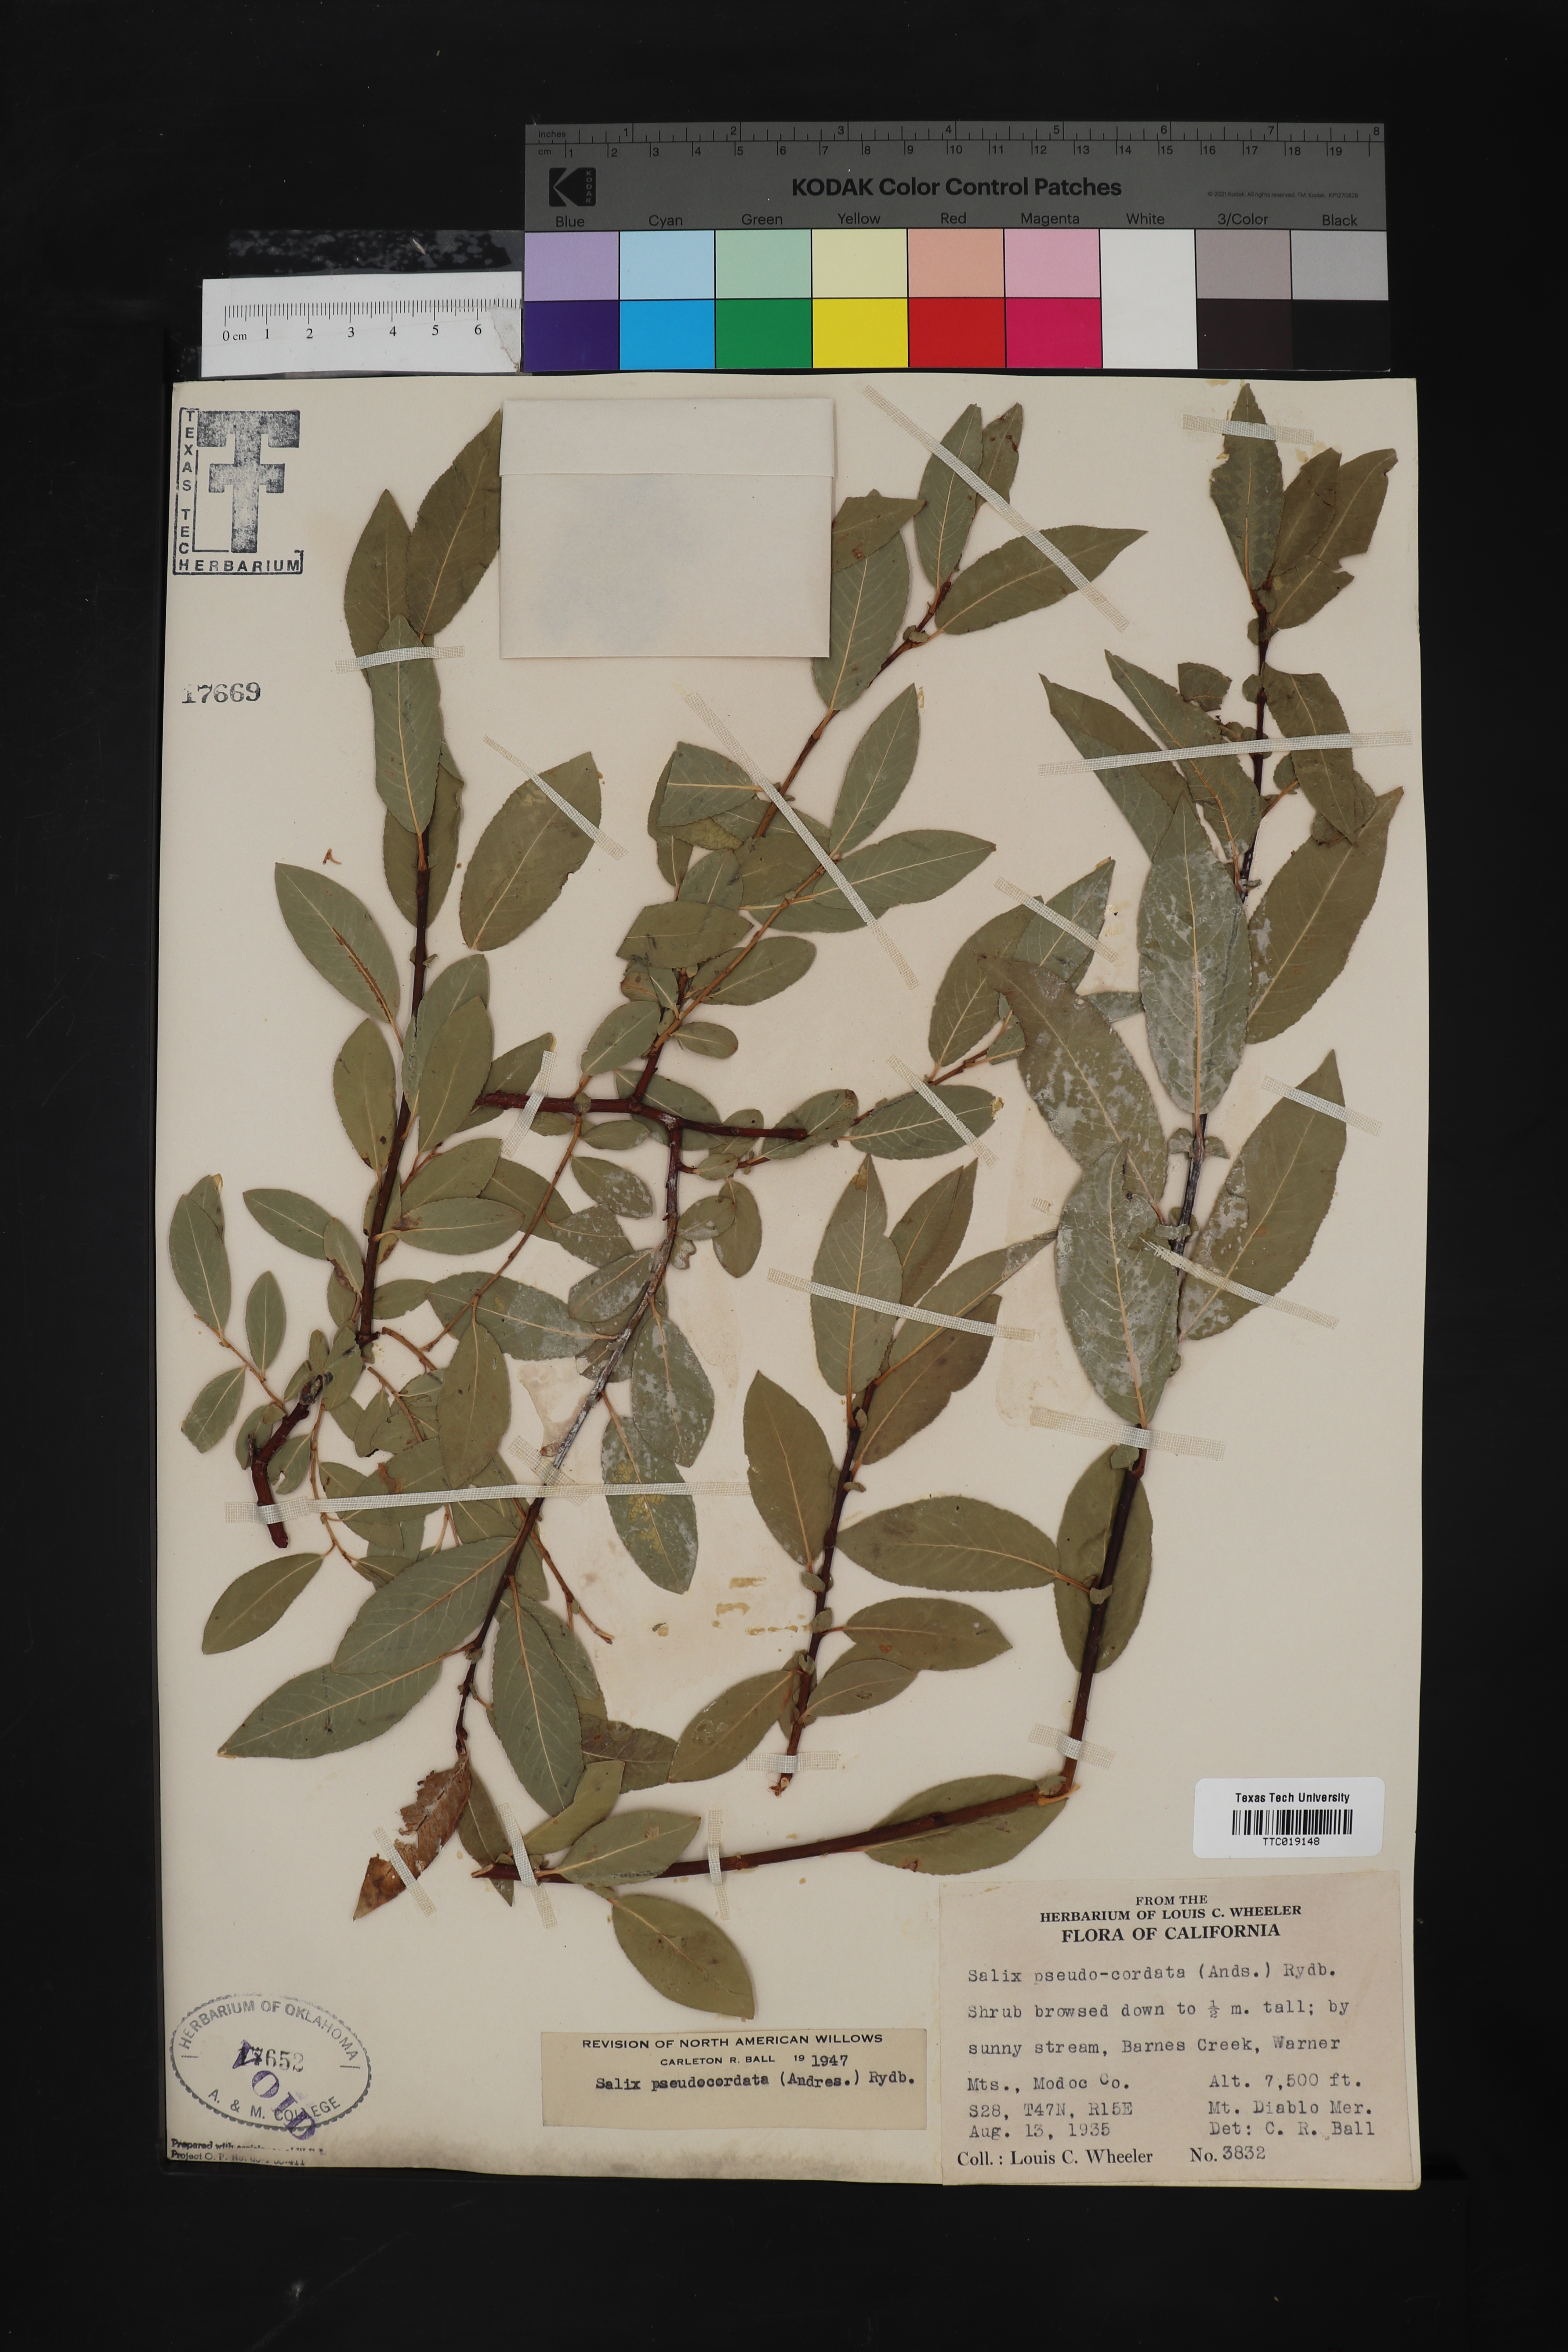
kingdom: Plantae
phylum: Tracheophyta
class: Magnoliopsida
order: Malpighiales
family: Salicaceae
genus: Salix
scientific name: Salix boothii
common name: Booth's willow
